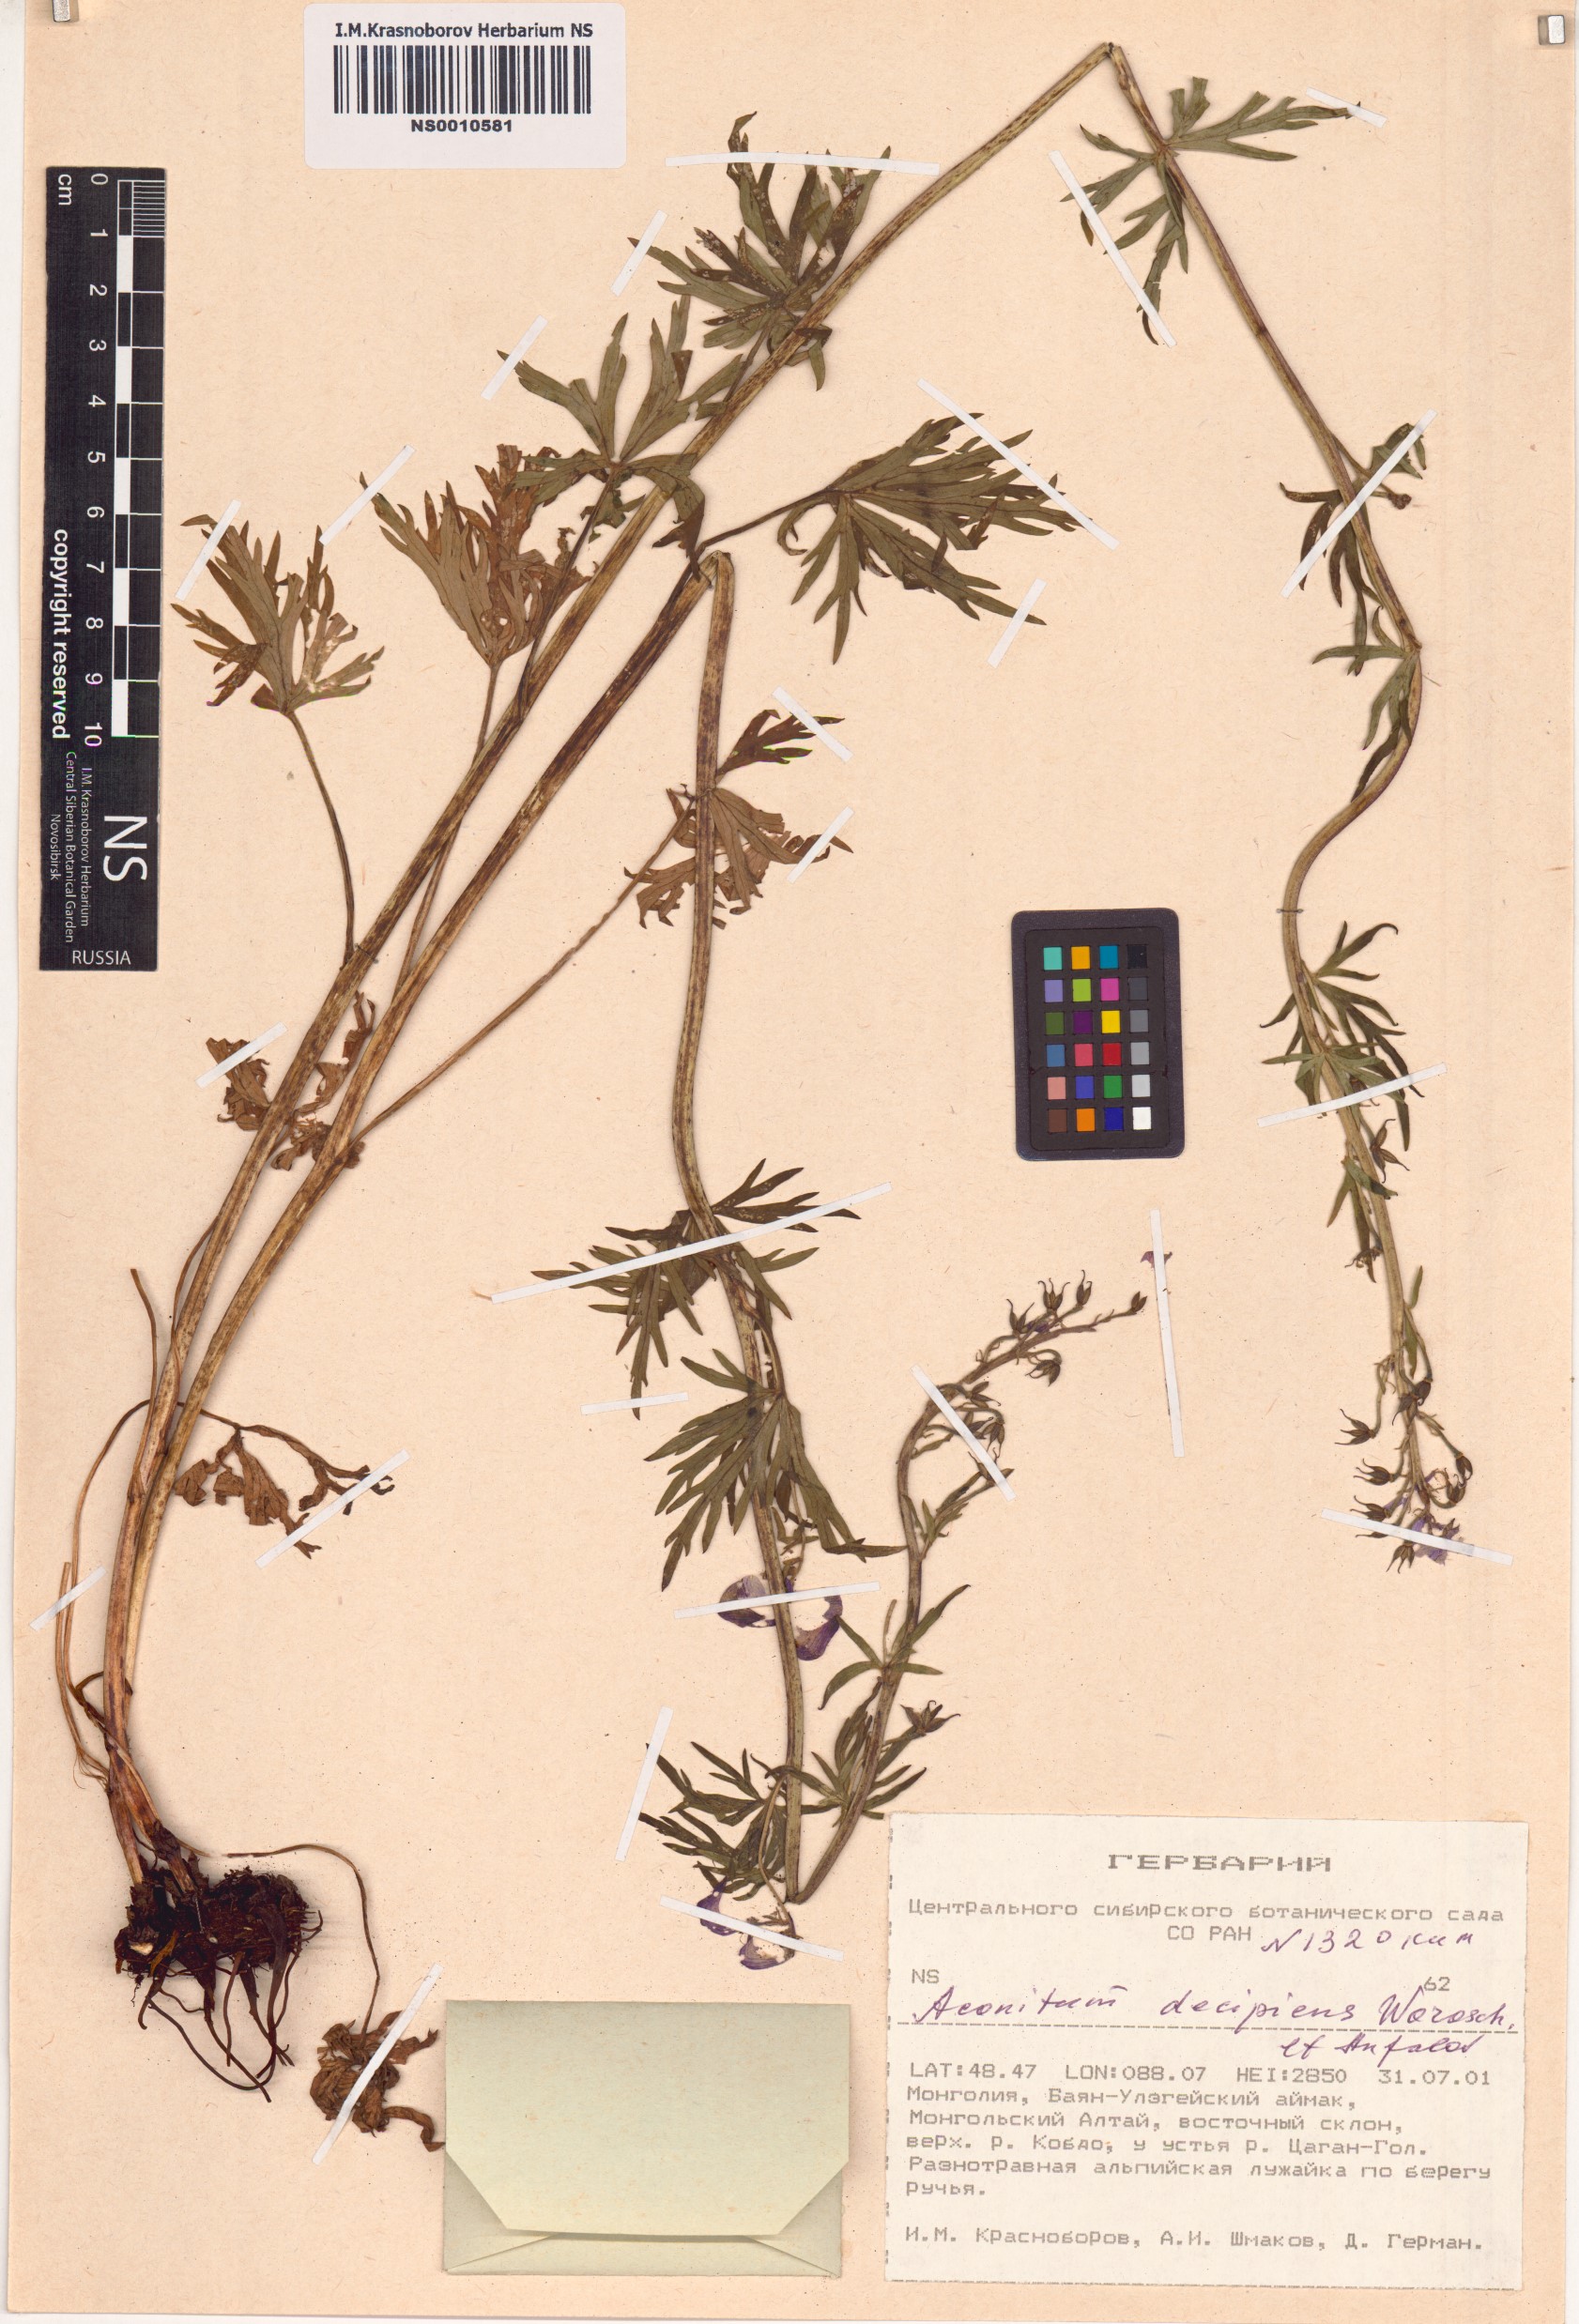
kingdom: Plantae
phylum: Tracheophyta
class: Magnoliopsida
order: Ranunculales
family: Ranunculaceae
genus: Aconitum
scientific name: Aconitum decipiens
